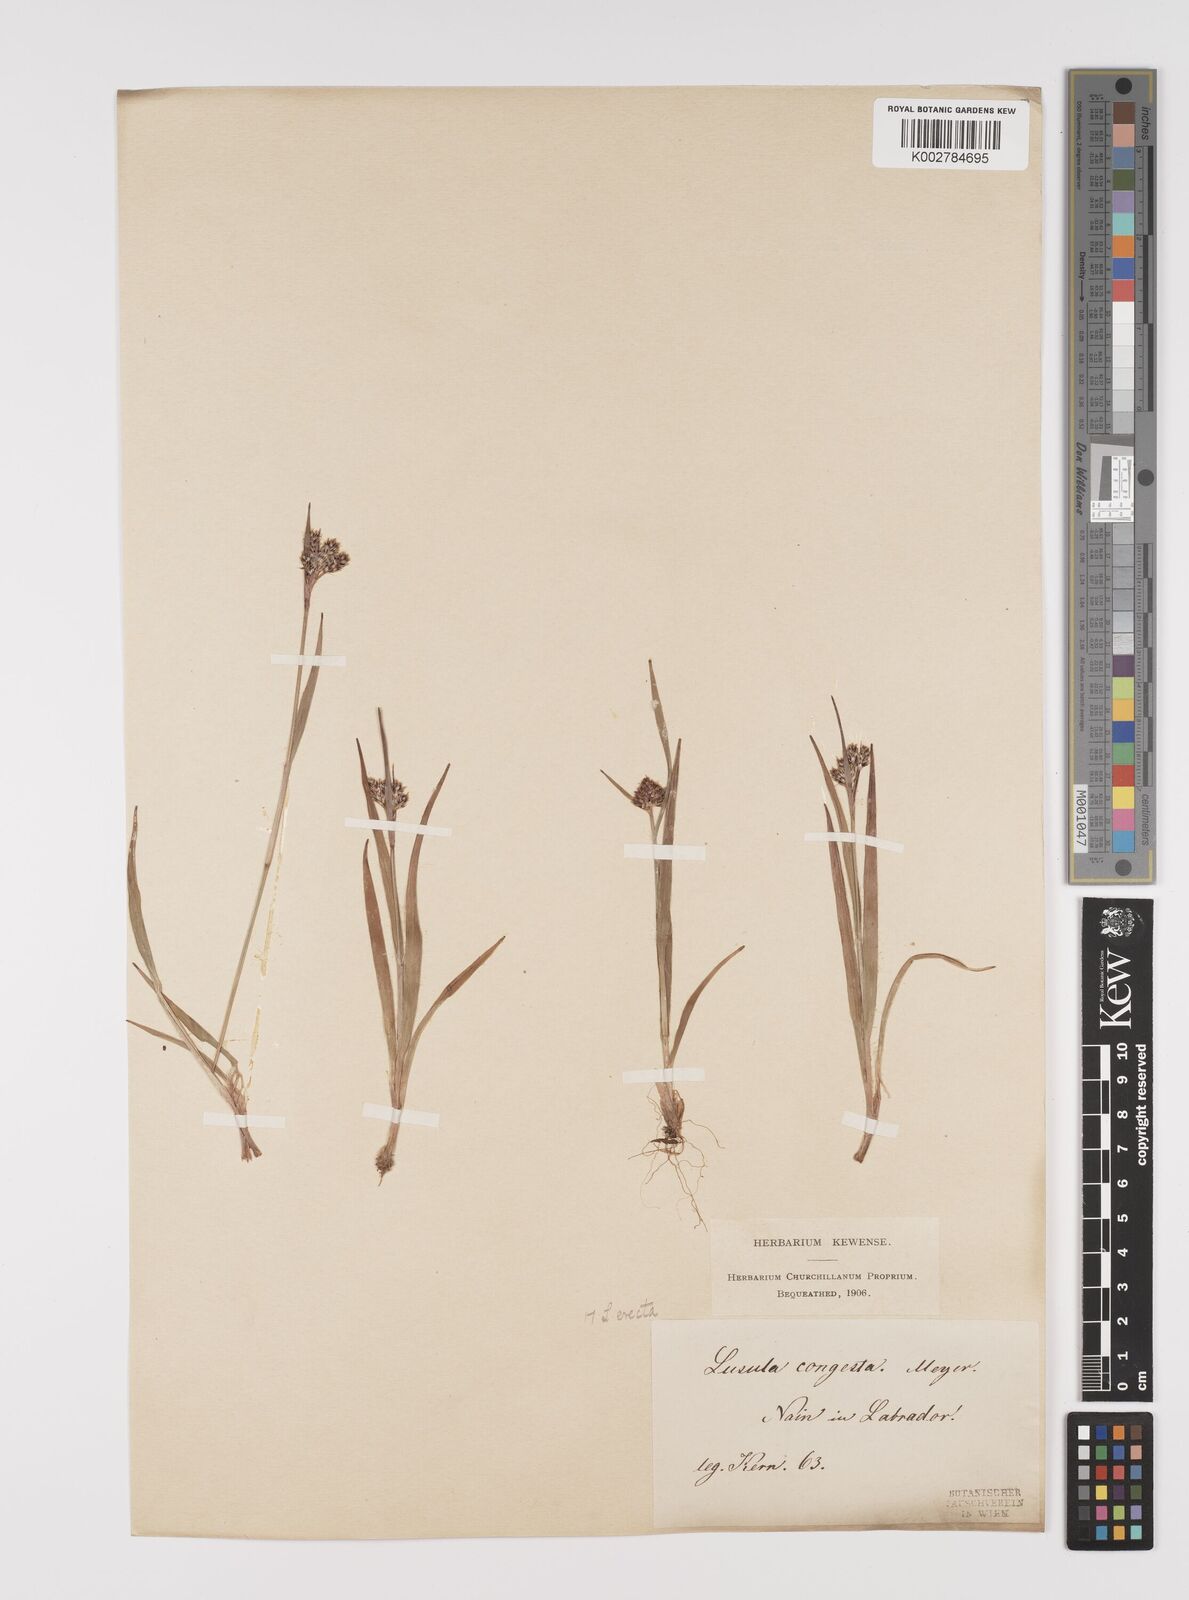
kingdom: Plantae
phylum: Tracheophyta
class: Liliopsida
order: Poales
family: Juncaceae
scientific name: Juncaceae
